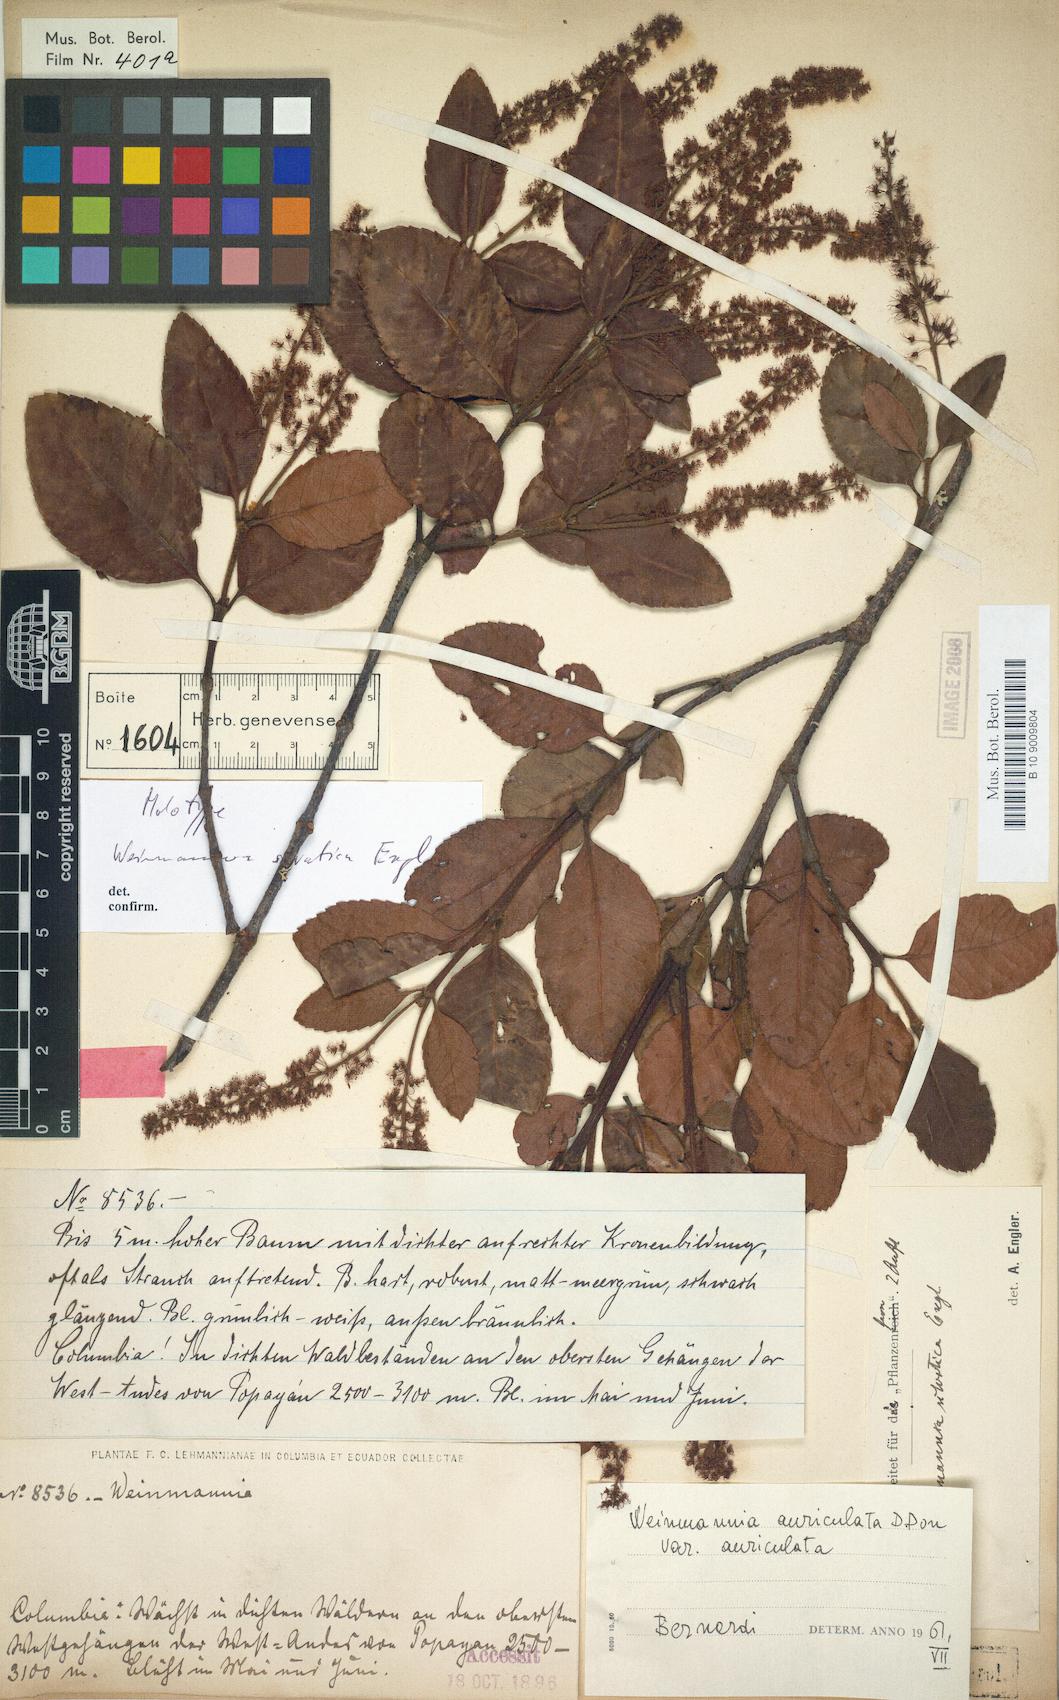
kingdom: Plantae
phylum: Tracheophyta
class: Magnoliopsida
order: Oxalidales
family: Cunoniaceae
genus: Weinmannia
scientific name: Weinmannia rollottii
